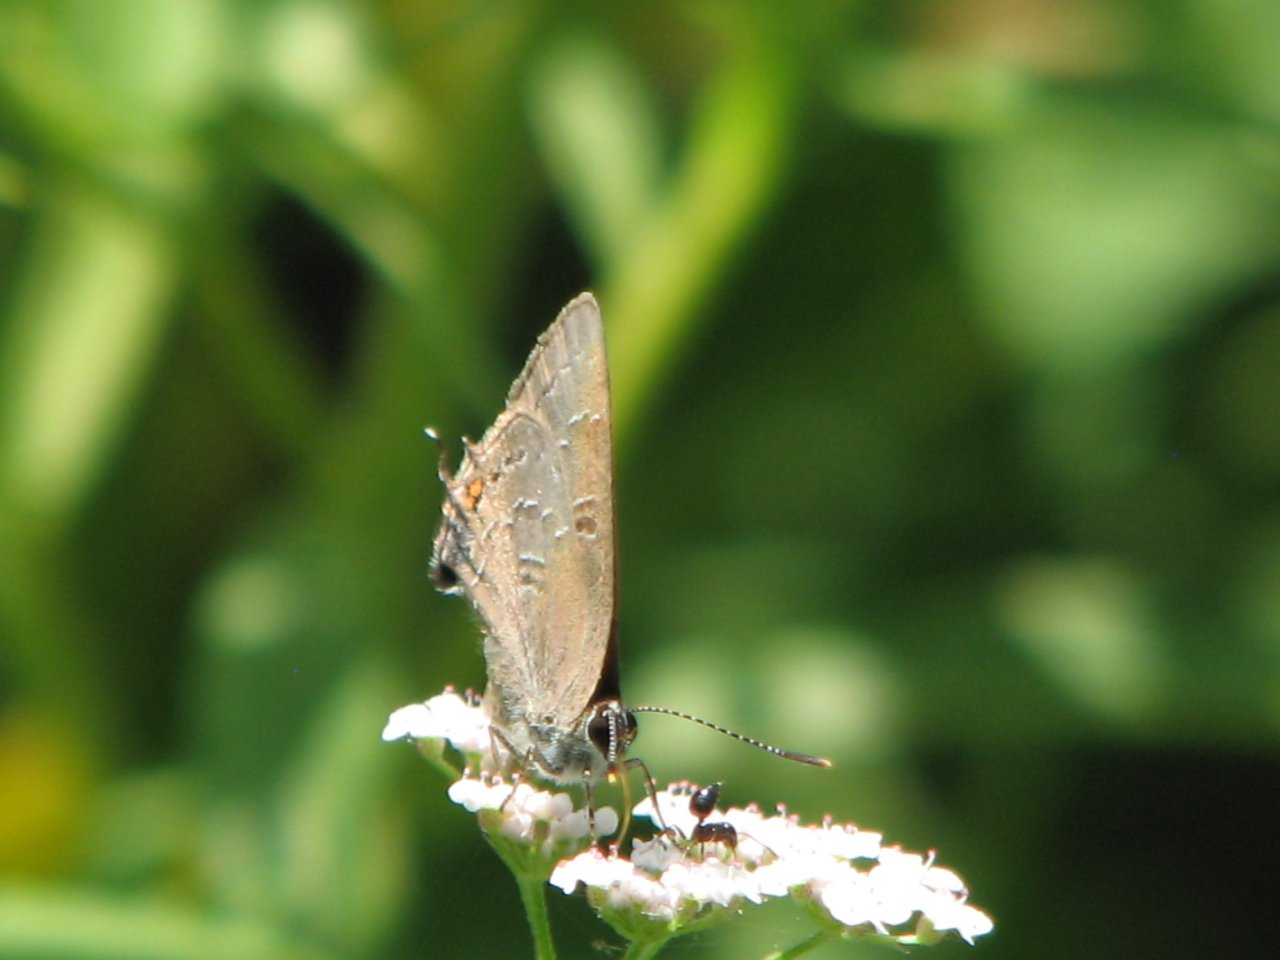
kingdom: Animalia
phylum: Arthropoda
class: Insecta
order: Lepidoptera
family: Lycaenidae
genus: Satyrium
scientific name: Satyrium calanus
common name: Banded Hairstreak
